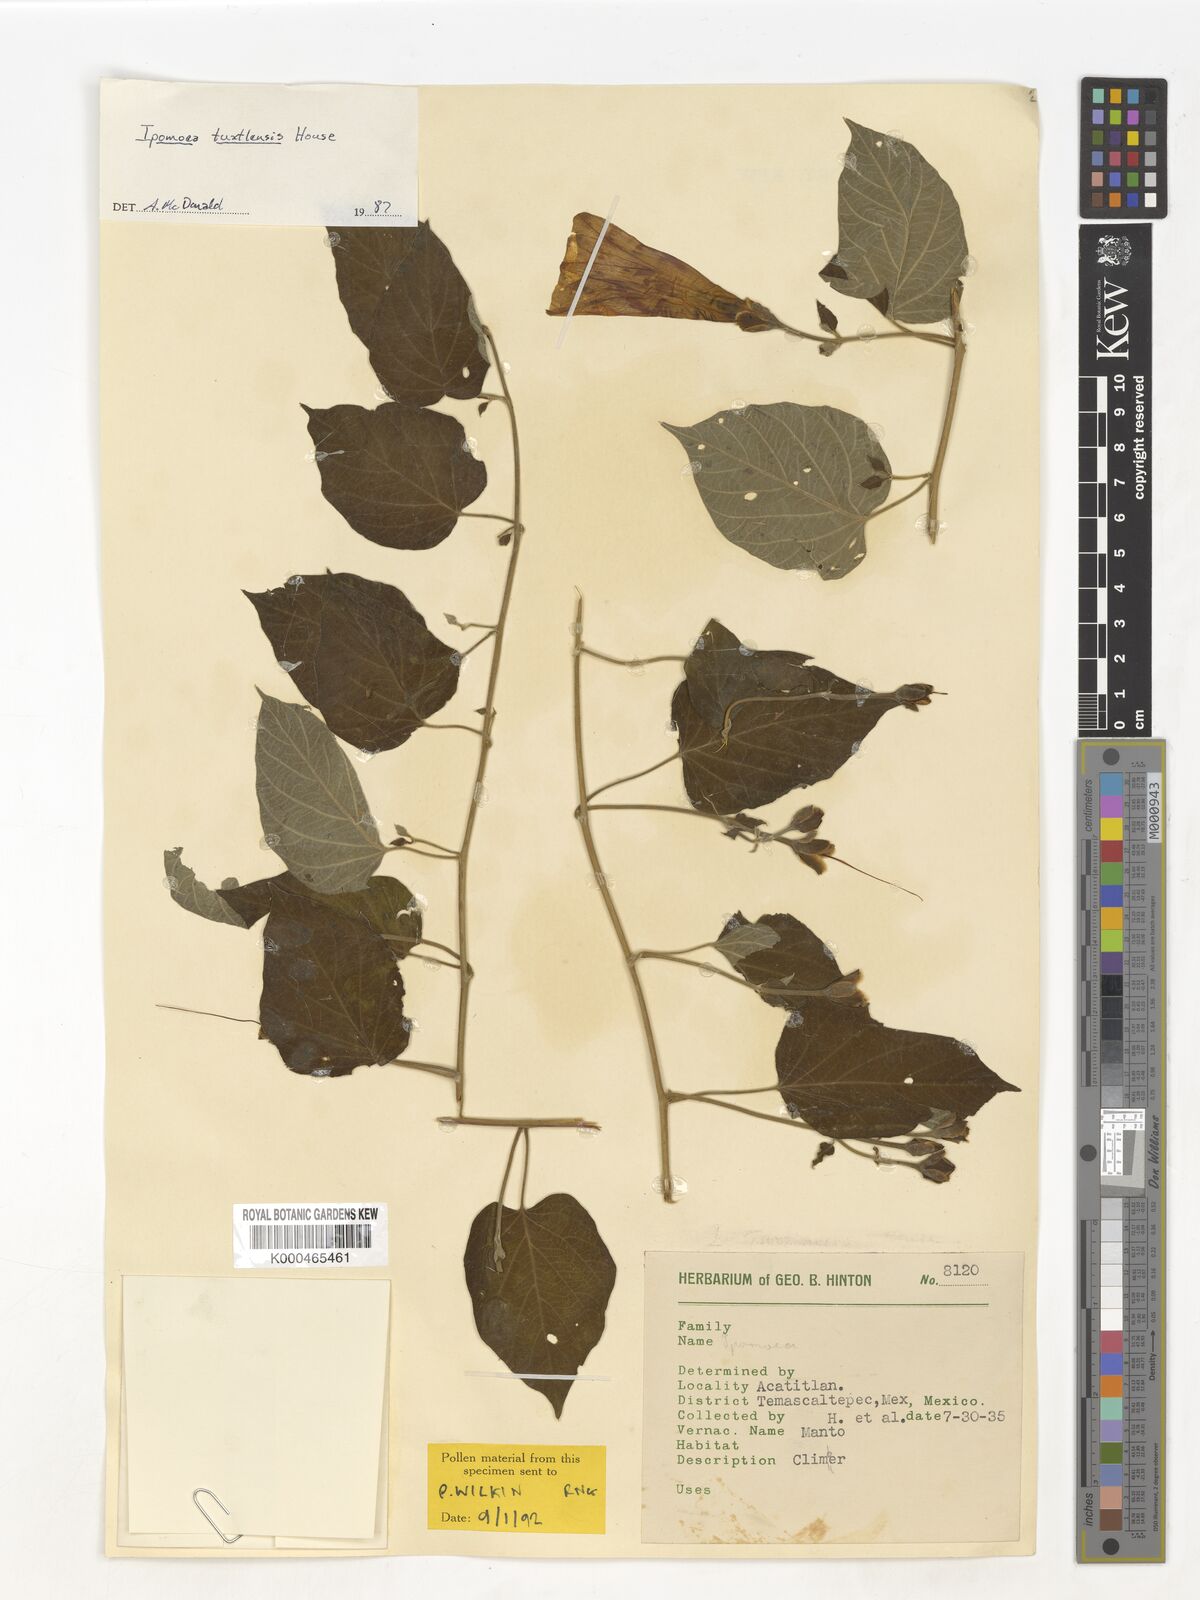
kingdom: Plantae
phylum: Tracheophyta
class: Magnoliopsida
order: Solanales
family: Convolvulaceae
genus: Ipomoea
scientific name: Ipomoea peteri
